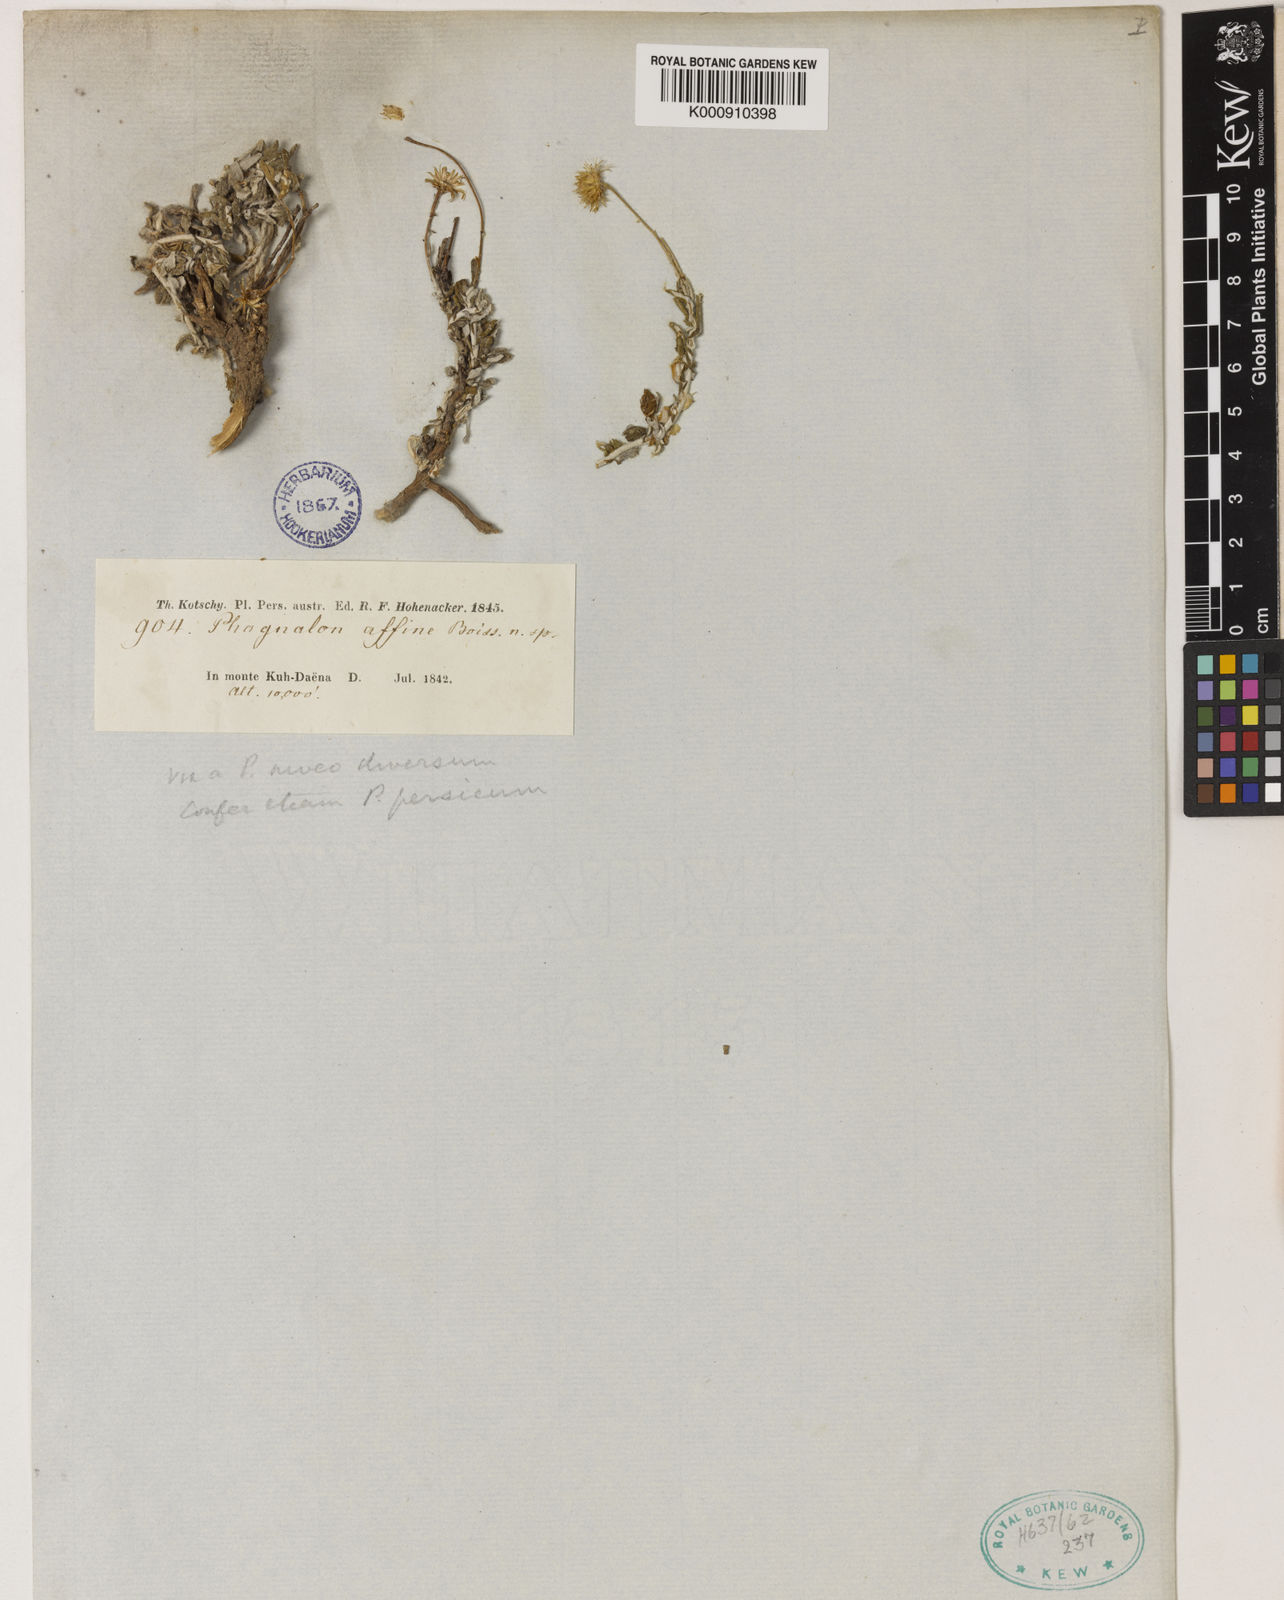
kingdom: Plantae
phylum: Tracheophyta
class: Magnoliopsida
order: Asterales
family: Asteraceae
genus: Phagnalon
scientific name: Phagnalon persicum
